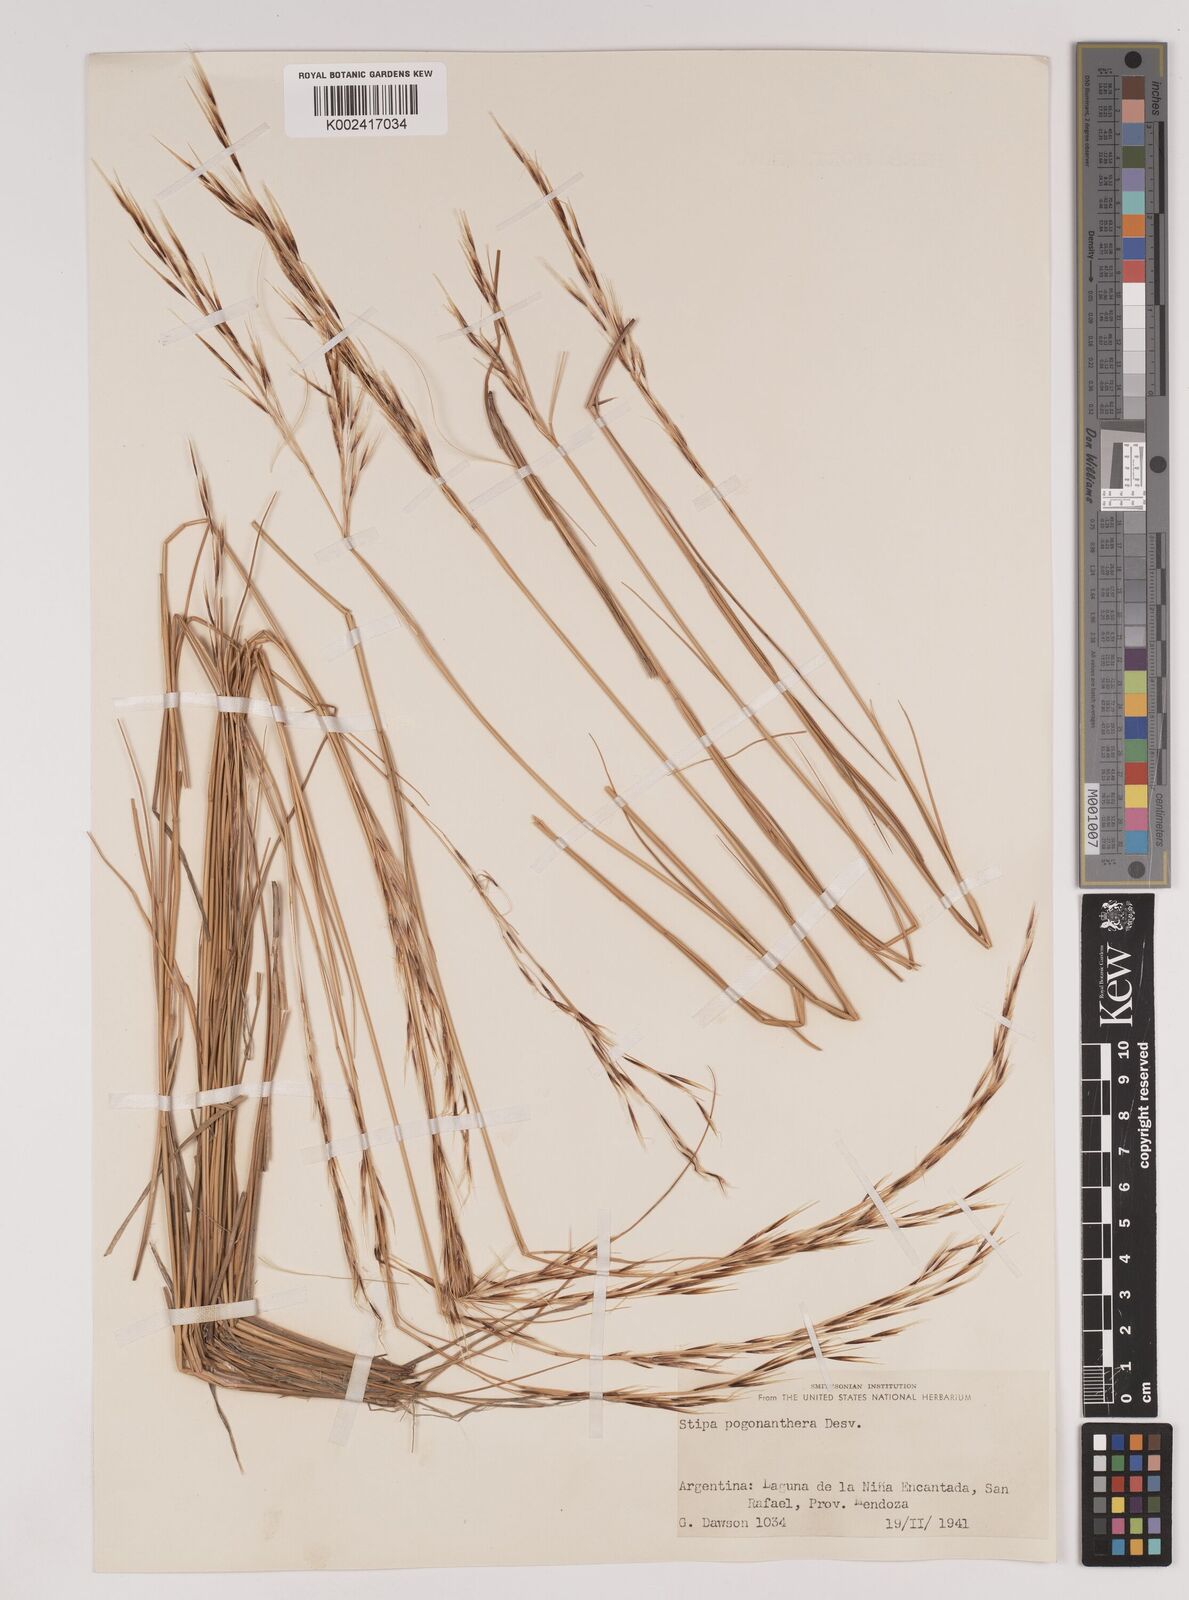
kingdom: Plantae
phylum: Tracheophyta
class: Liliopsida
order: Poales
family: Poaceae
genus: Stipa
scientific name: Stipa pogonathera
